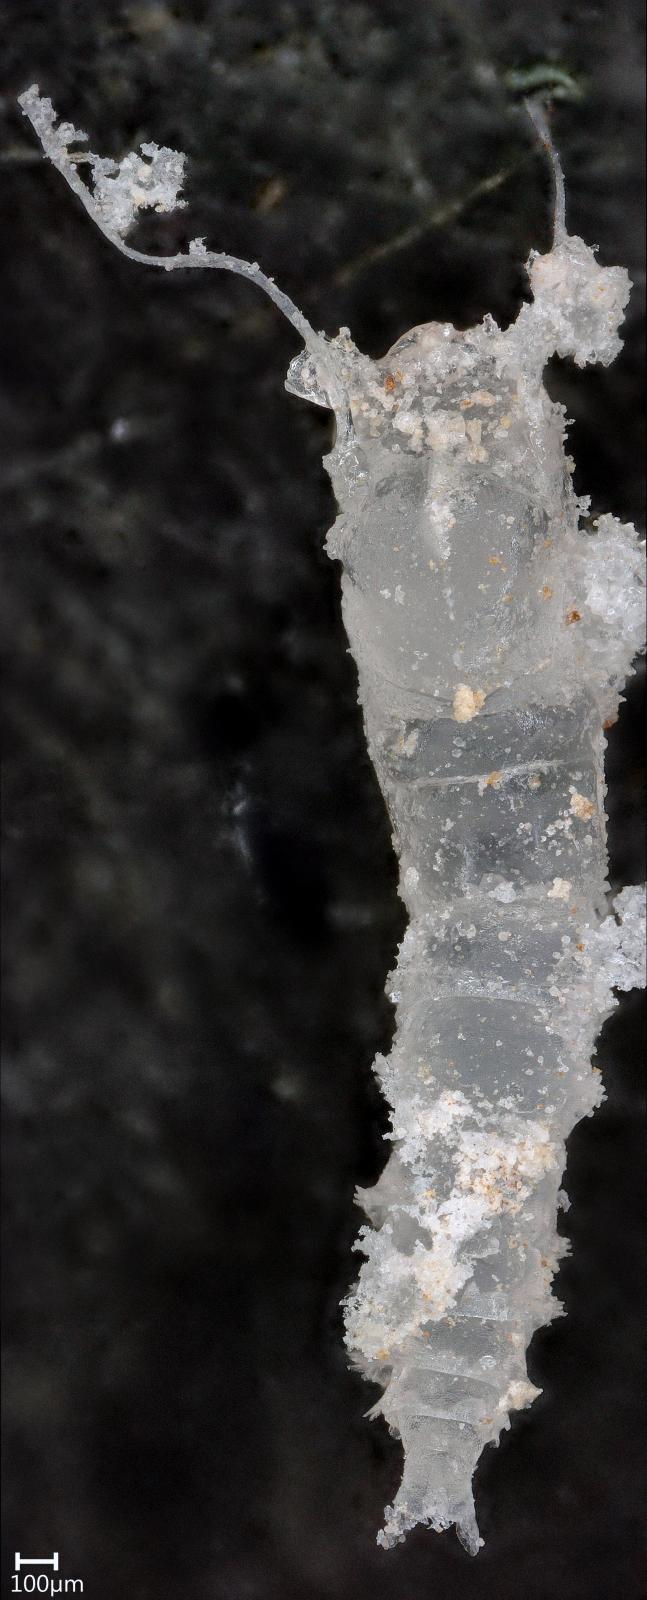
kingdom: Animalia
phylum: Arthropoda
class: Insecta
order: Diptera
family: Ceratopogonidae
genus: Dasyhelea
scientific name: Dasyhelea
